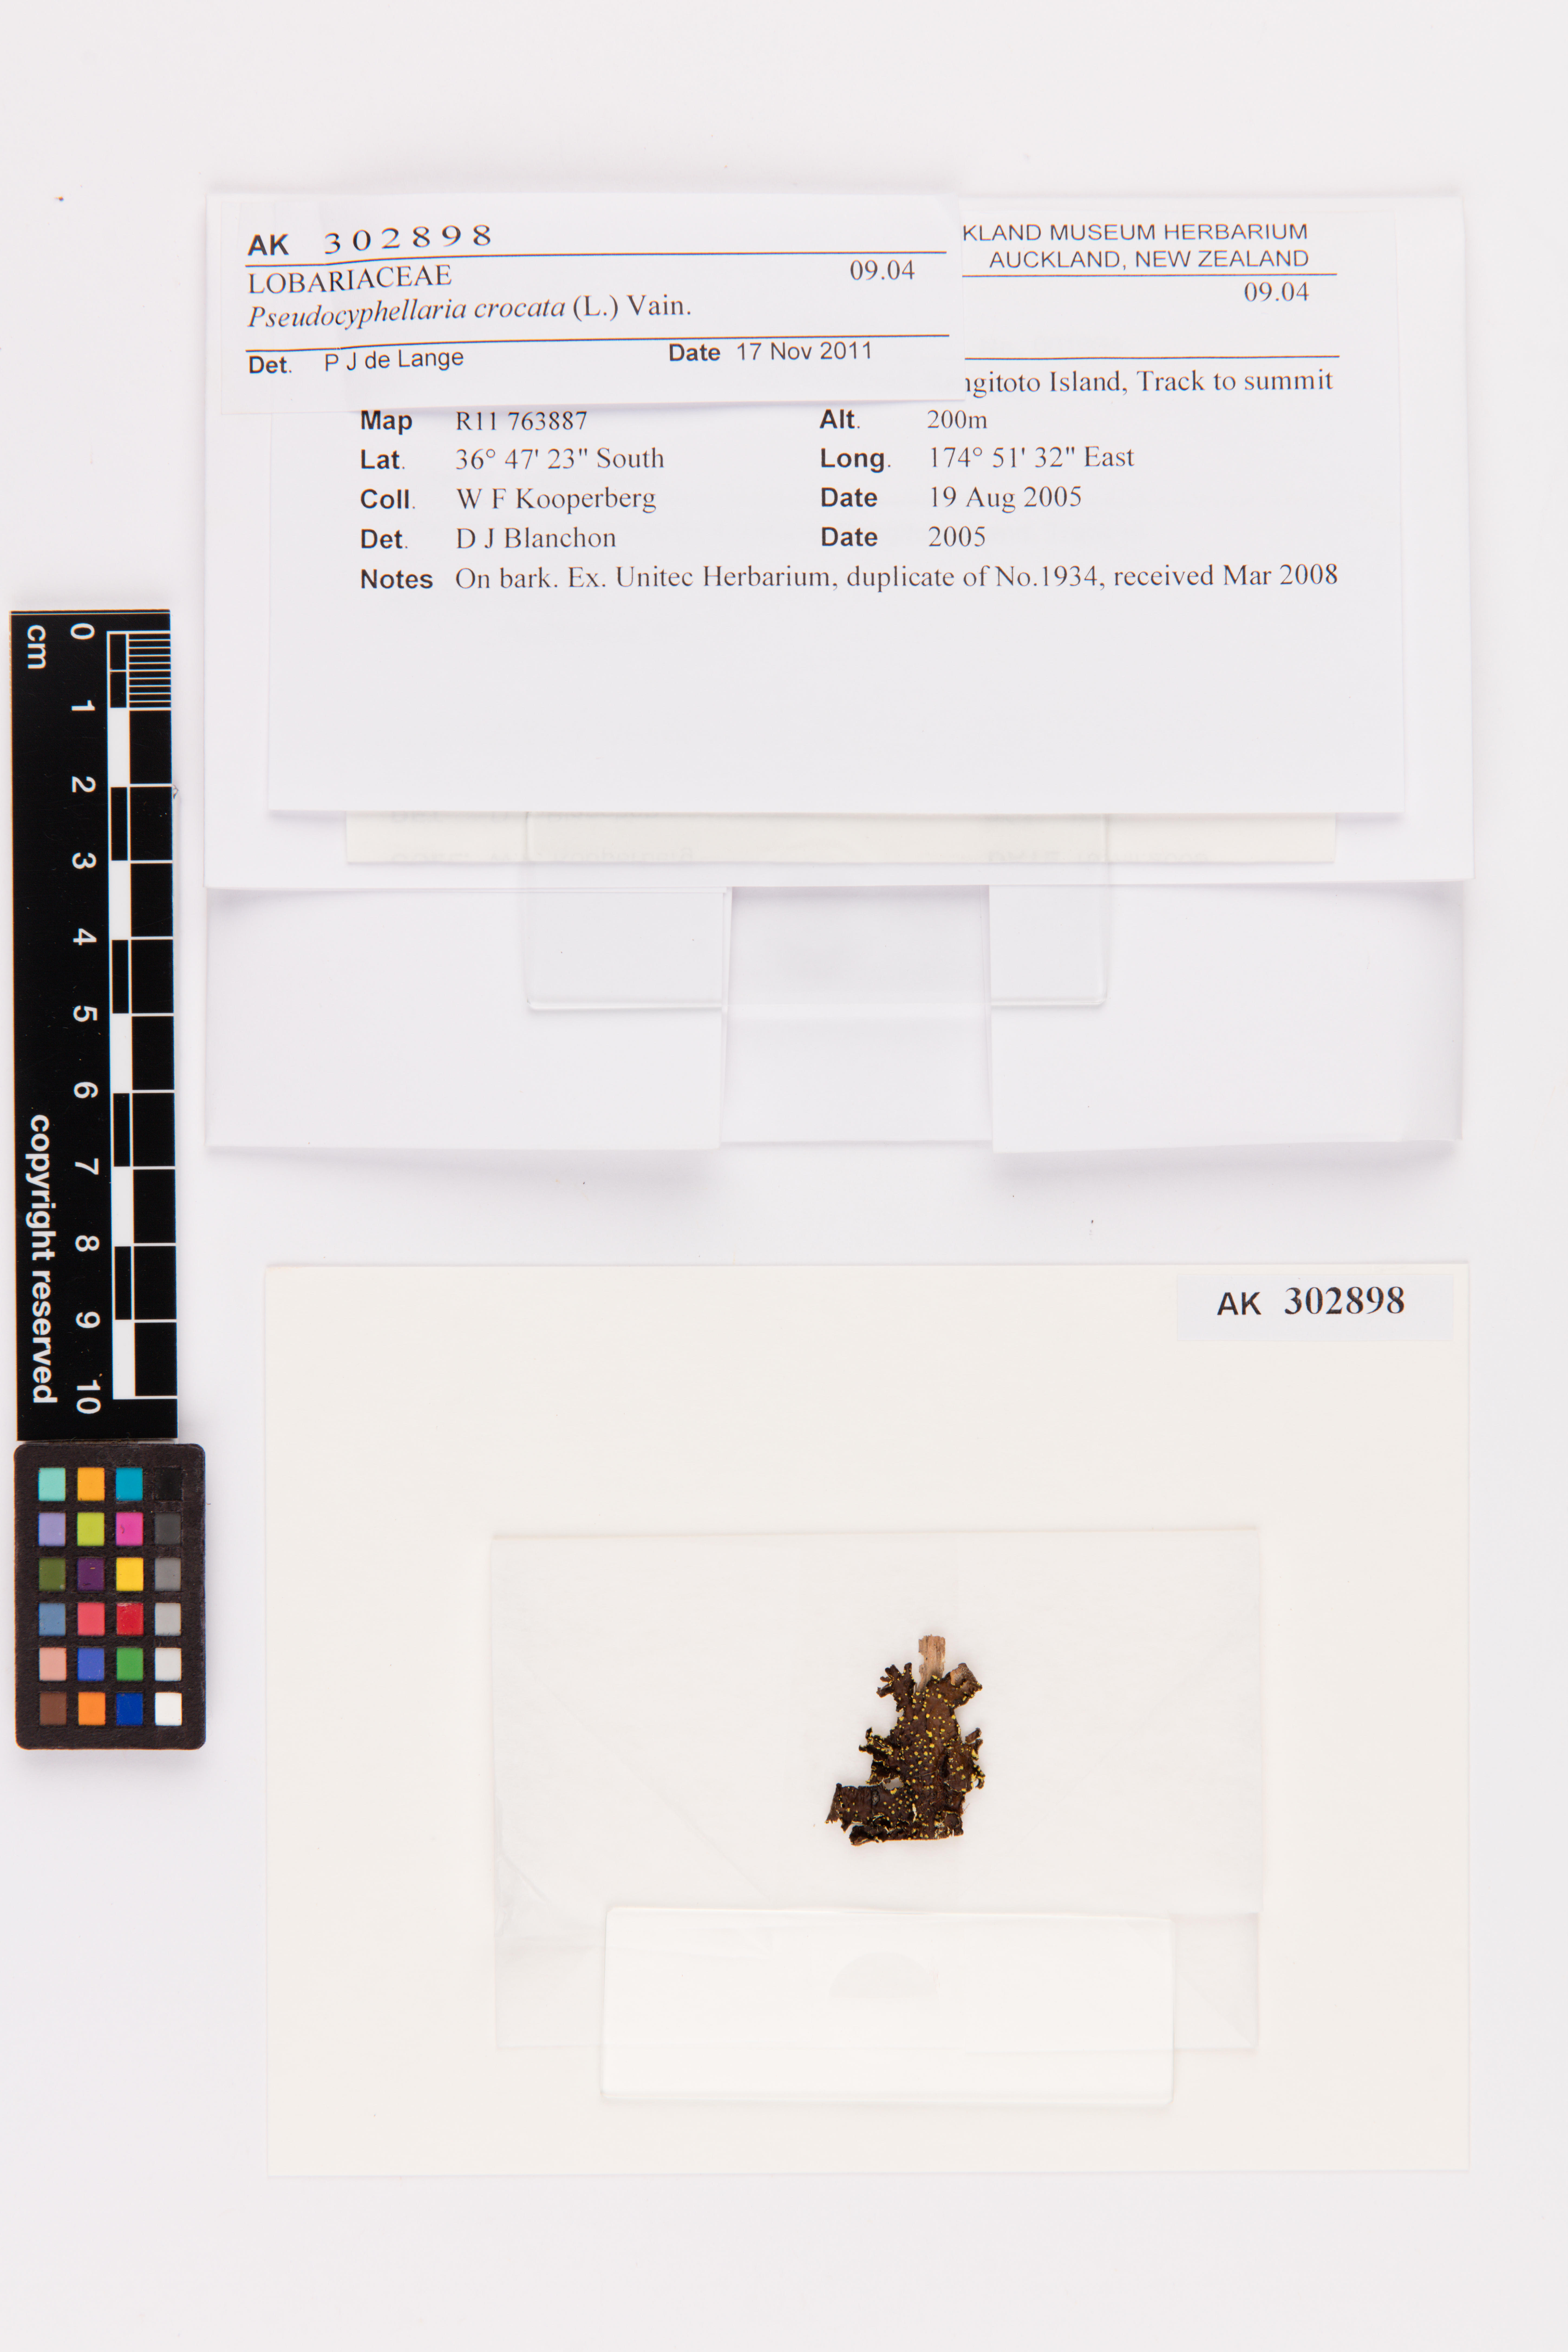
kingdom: Fungi
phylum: Ascomycota
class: Lecanoromycetes
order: Peltigerales
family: Lobariaceae
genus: Pseudocyphellaria
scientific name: Pseudocyphellaria crocata
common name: Golden specklebelly
